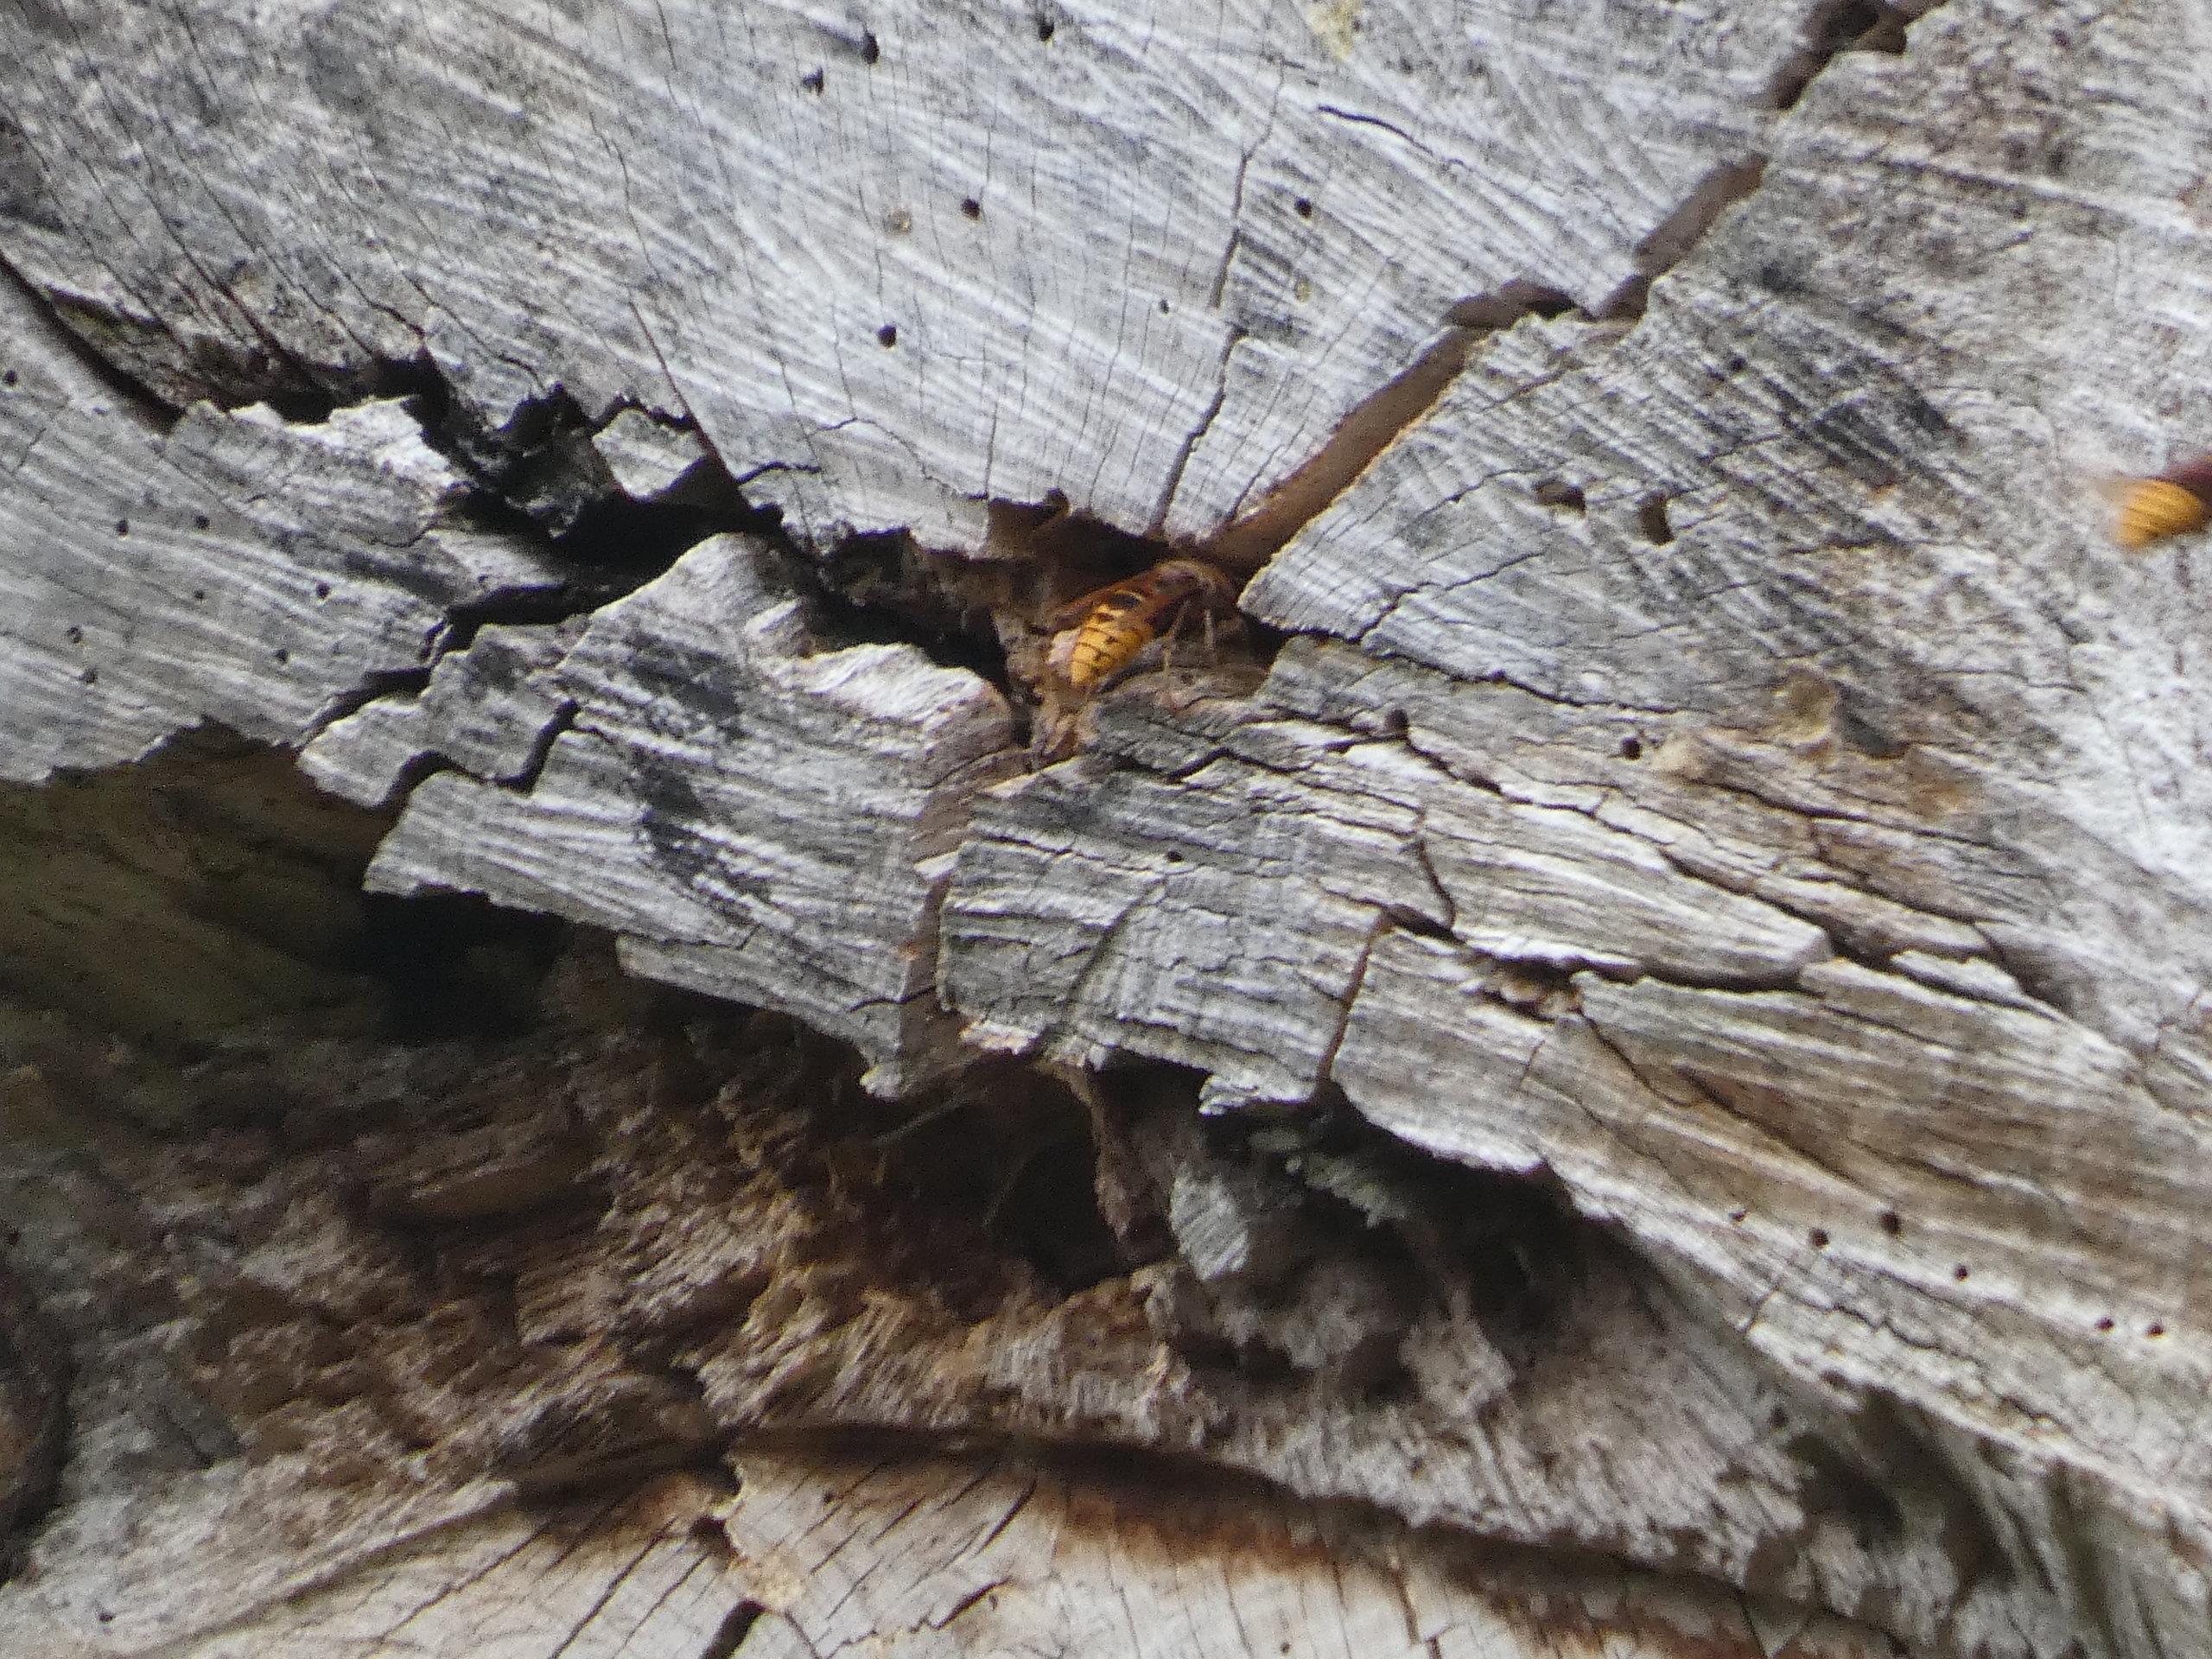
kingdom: Animalia
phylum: Arthropoda
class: Insecta
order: Hymenoptera
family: Vespidae
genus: Vespa
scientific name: Vespa crabro
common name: Stor gedehams
